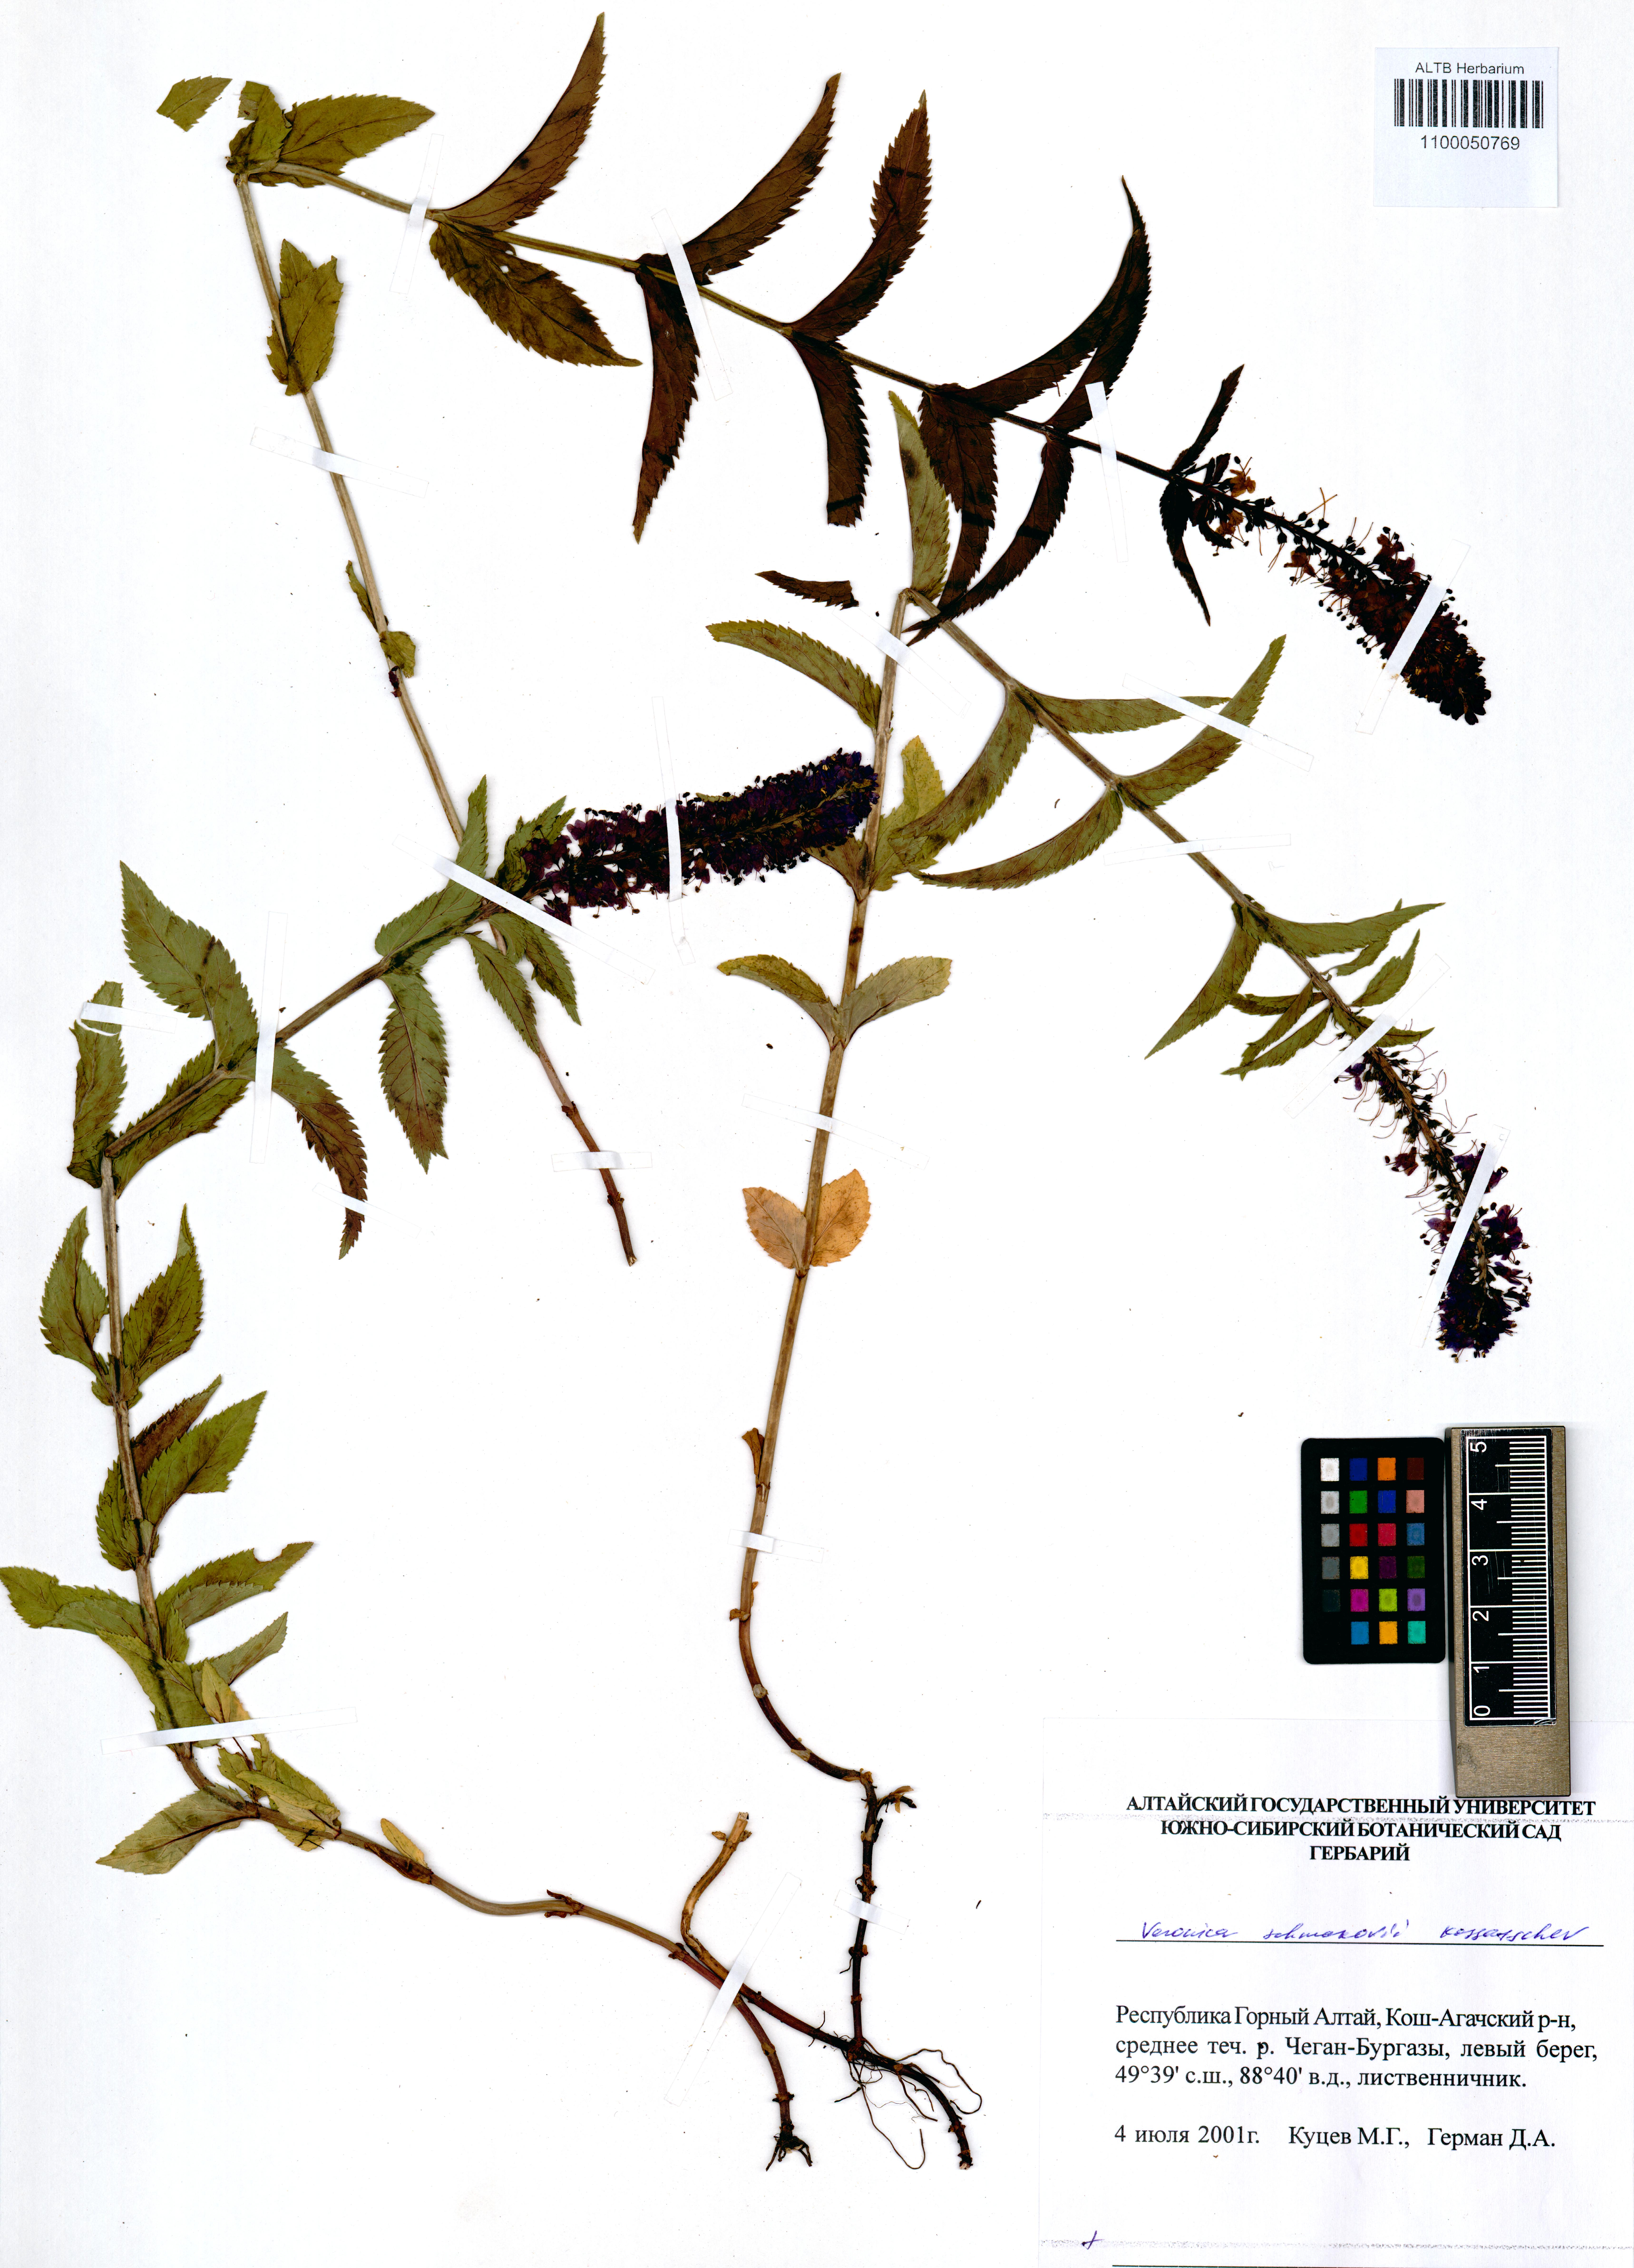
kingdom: Plantae
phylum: Tracheophyta
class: Magnoliopsida
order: Lamiales
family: Plantaginaceae
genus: Veronica
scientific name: Veronica schmakovii
